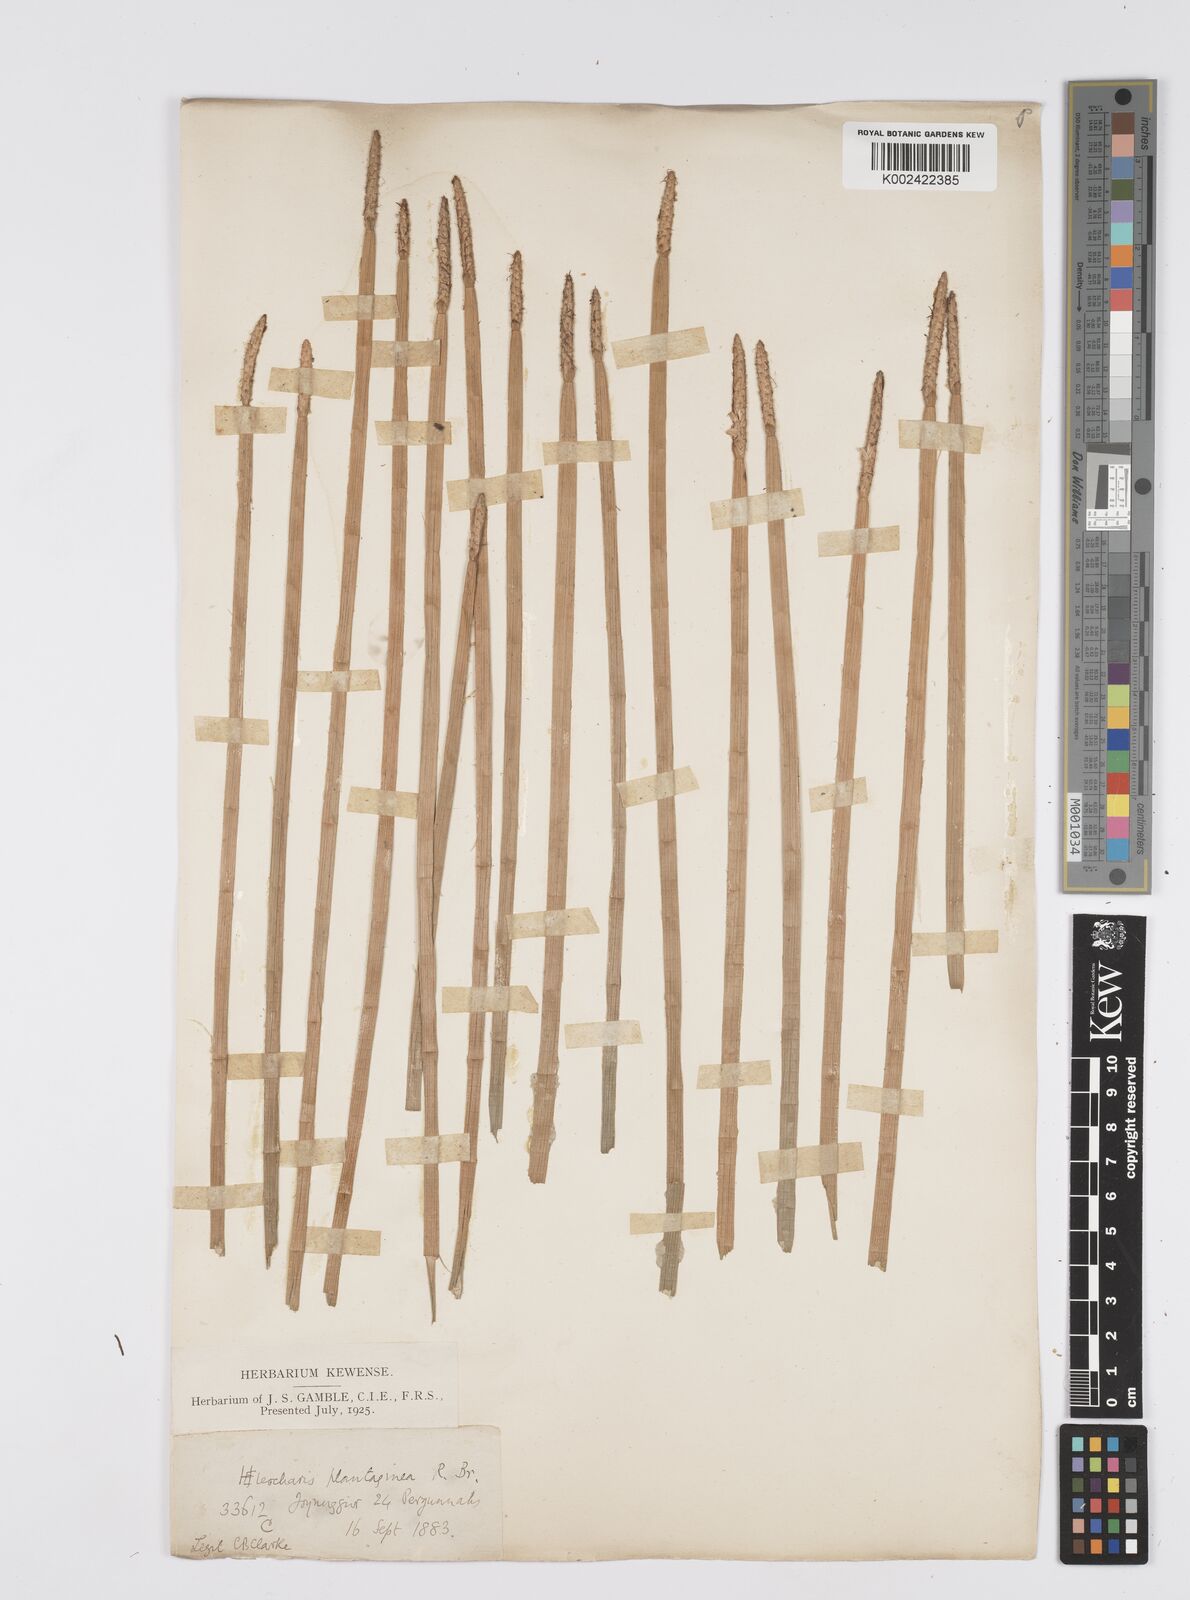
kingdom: Plantae
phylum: Tracheophyta
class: Liliopsida
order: Poales
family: Cyperaceae
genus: Eleocharis
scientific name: Eleocharis dulcis
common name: Chinese water chestnut
